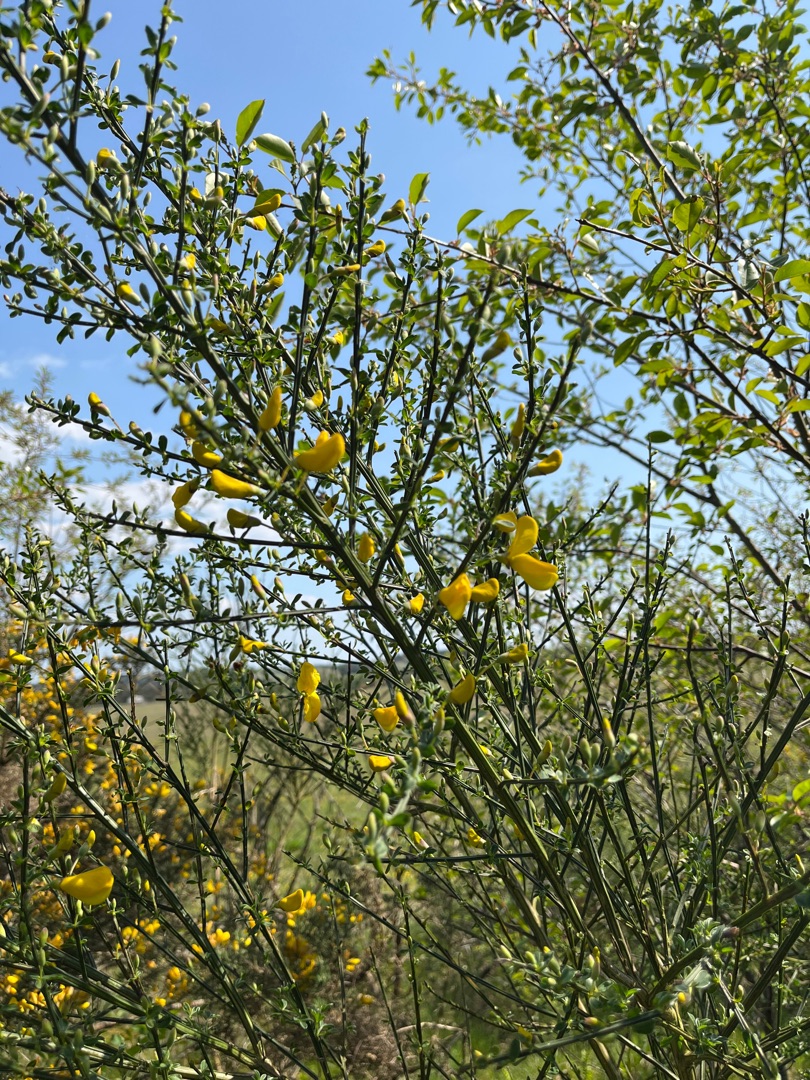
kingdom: Plantae
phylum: Tracheophyta
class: Magnoliopsida
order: Fabales
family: Fabaceae
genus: Cytisus
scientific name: Cytisus scoparius
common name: Almindelig gyvel
